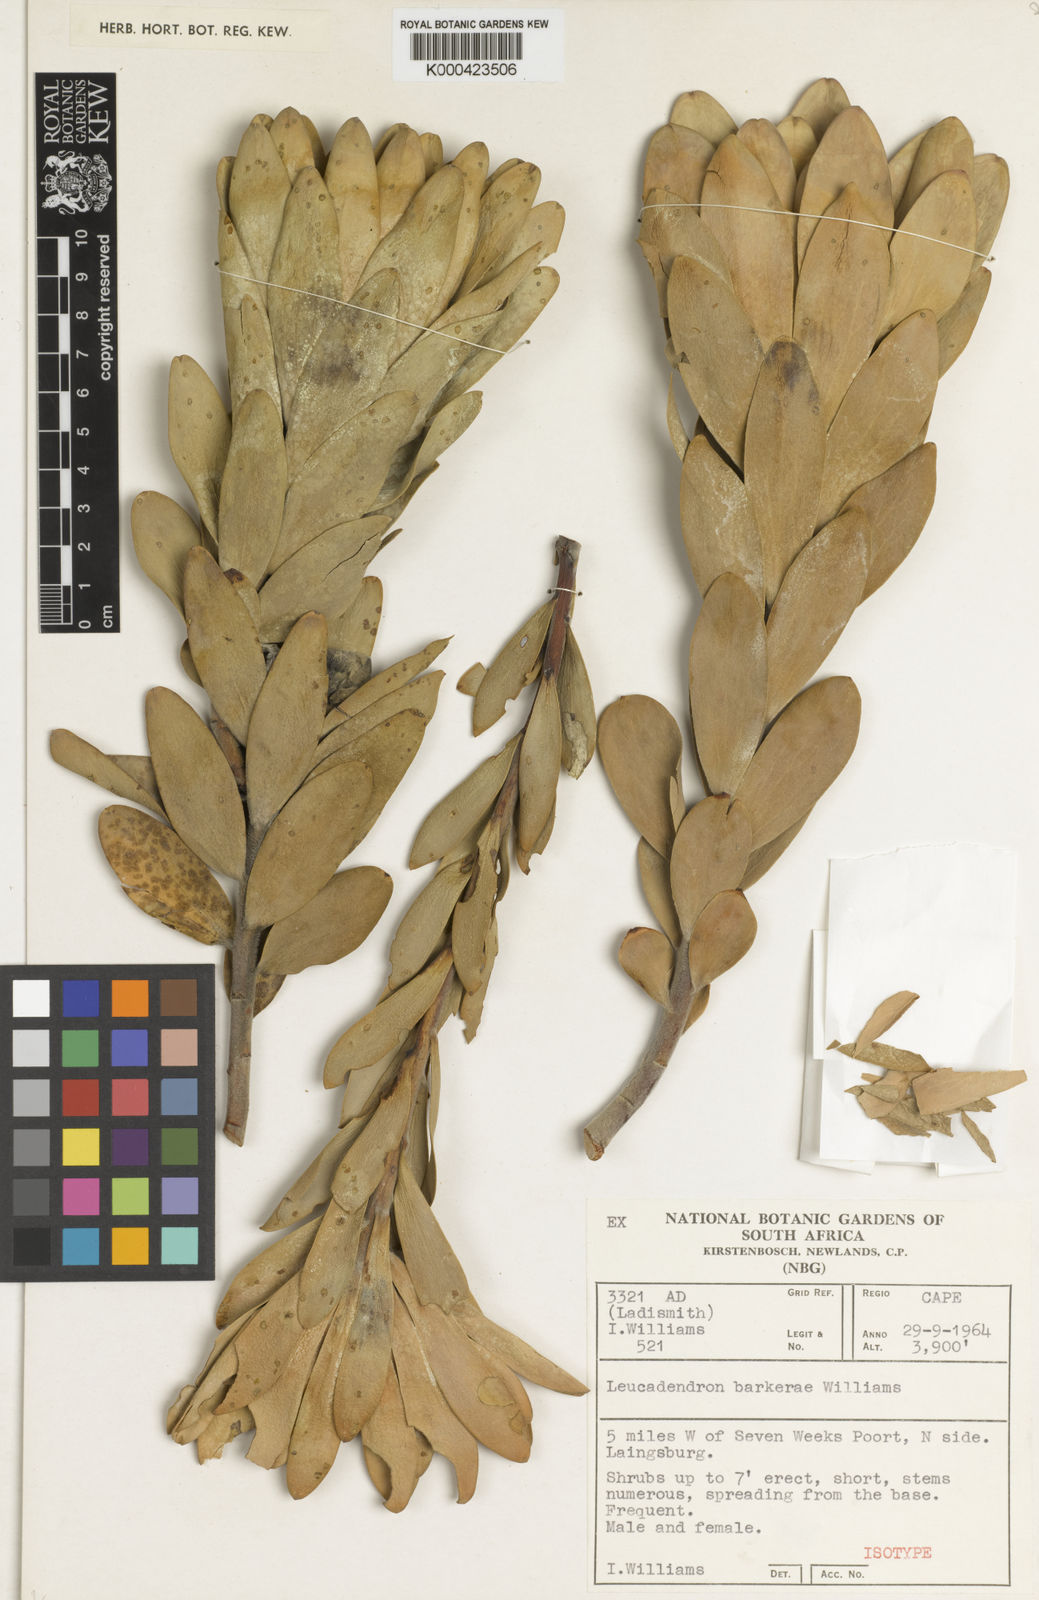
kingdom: Plantae
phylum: Tracheophyta
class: Magnoliopsida
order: Proteales
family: Proteaceae
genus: Leucadendron
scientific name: Leucadendron barkerae
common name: Swartberg conebush
